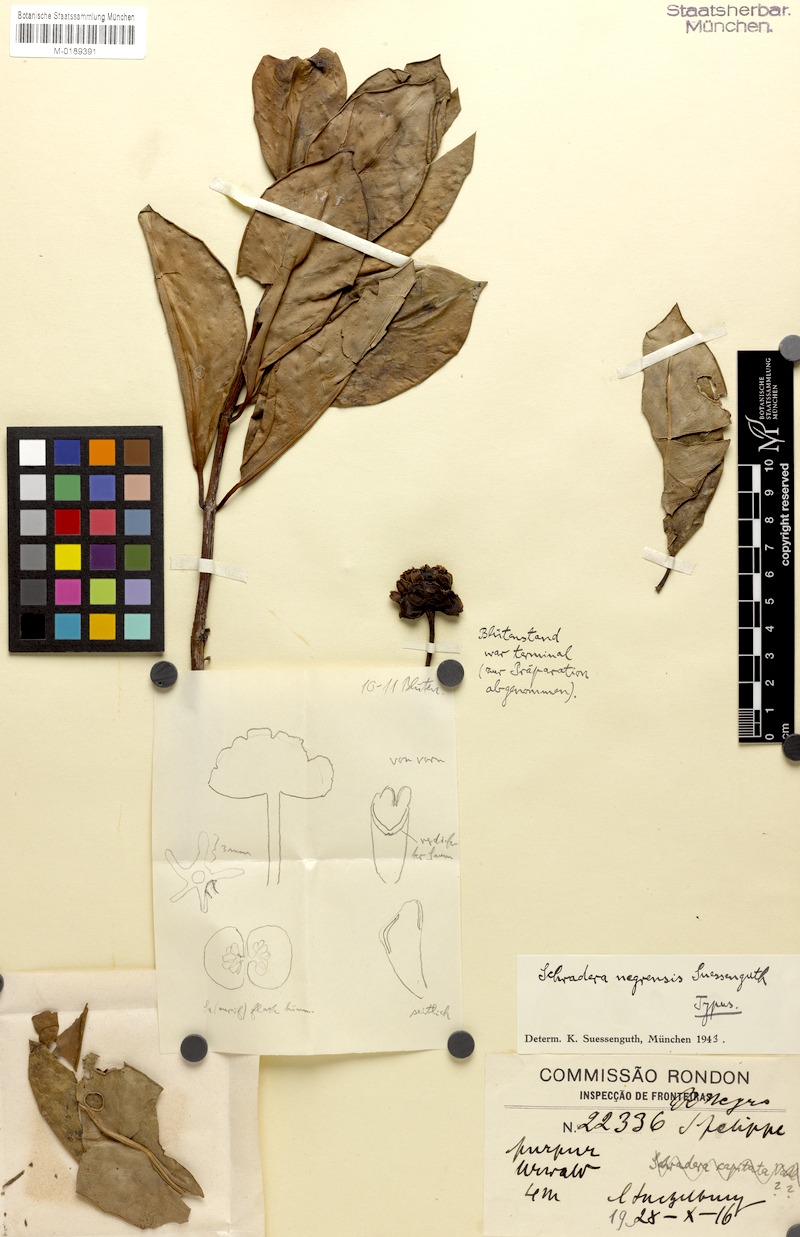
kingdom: Plantae
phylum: Tracheophyta
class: Magnoliopsida
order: Gentianales
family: Rubiaceae
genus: Schradera
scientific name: Schradera negrensis
